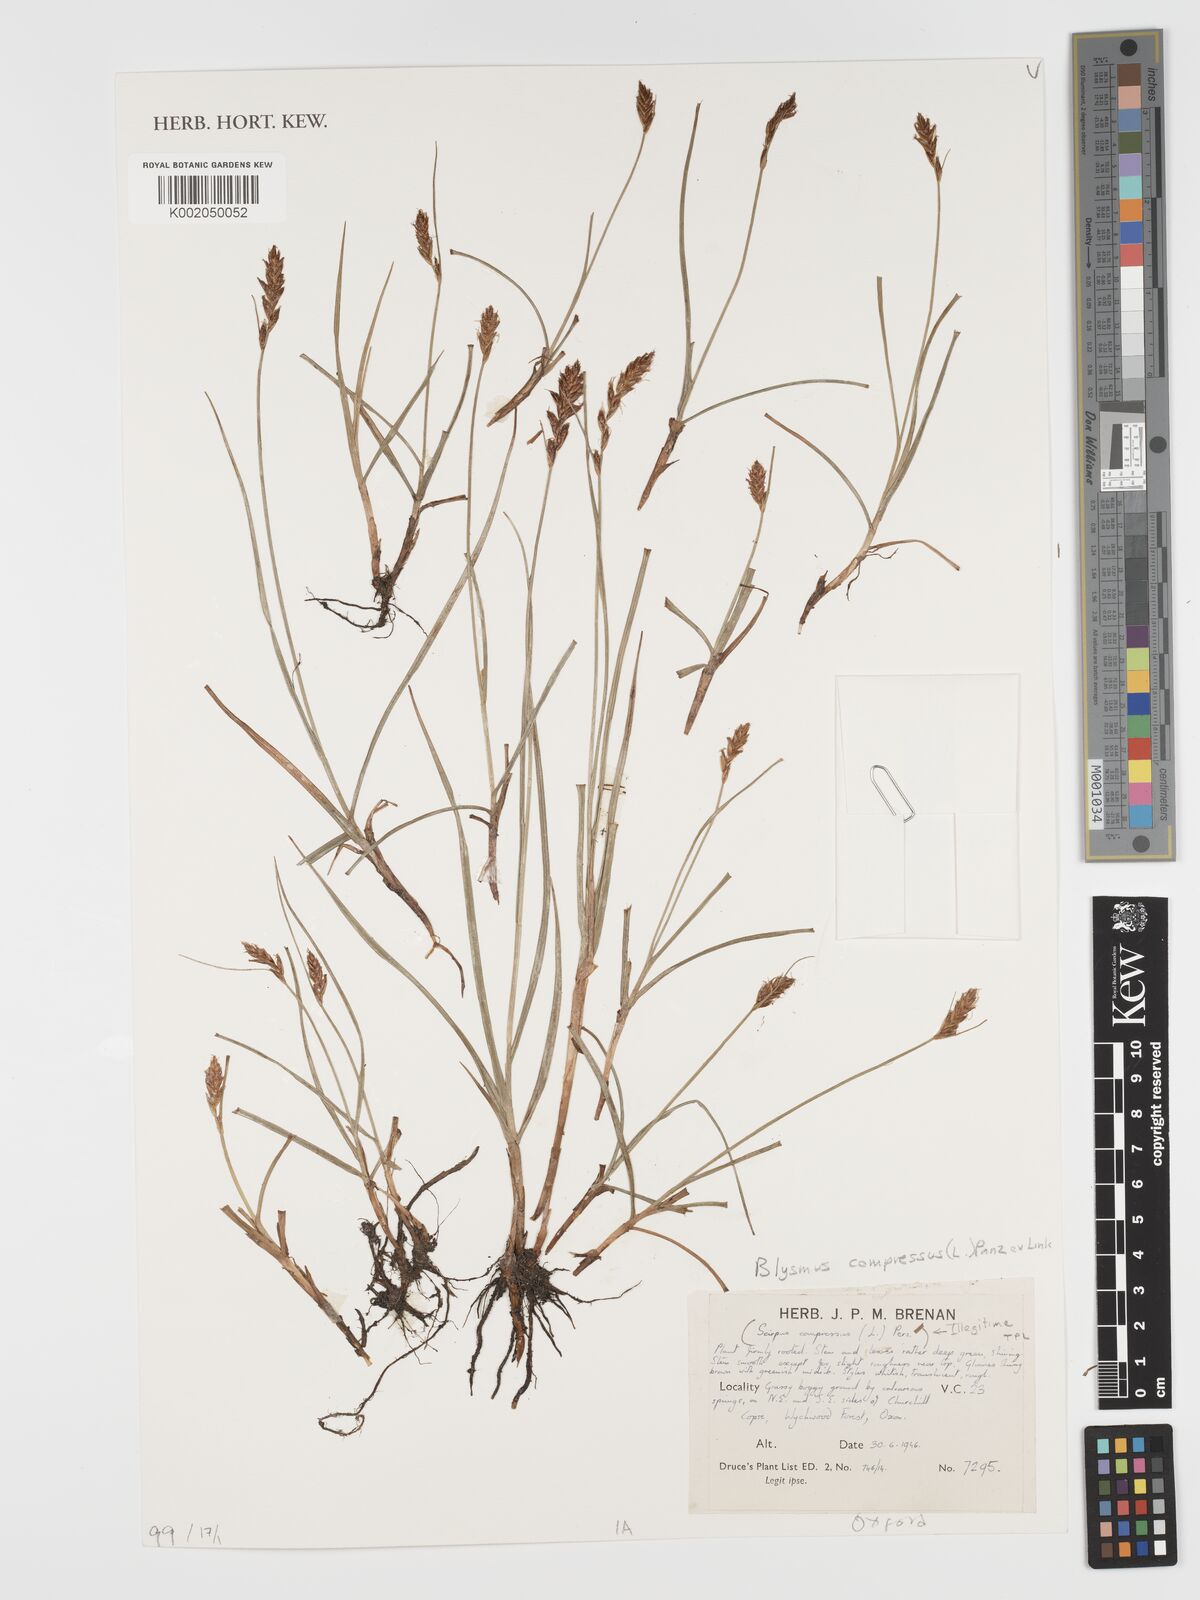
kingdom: Plantae
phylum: Tracheophyta
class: Liliopsida
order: Poales
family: Cyperaceae
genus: Blysmus
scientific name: Blysmus compressus
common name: Flat-sedge
